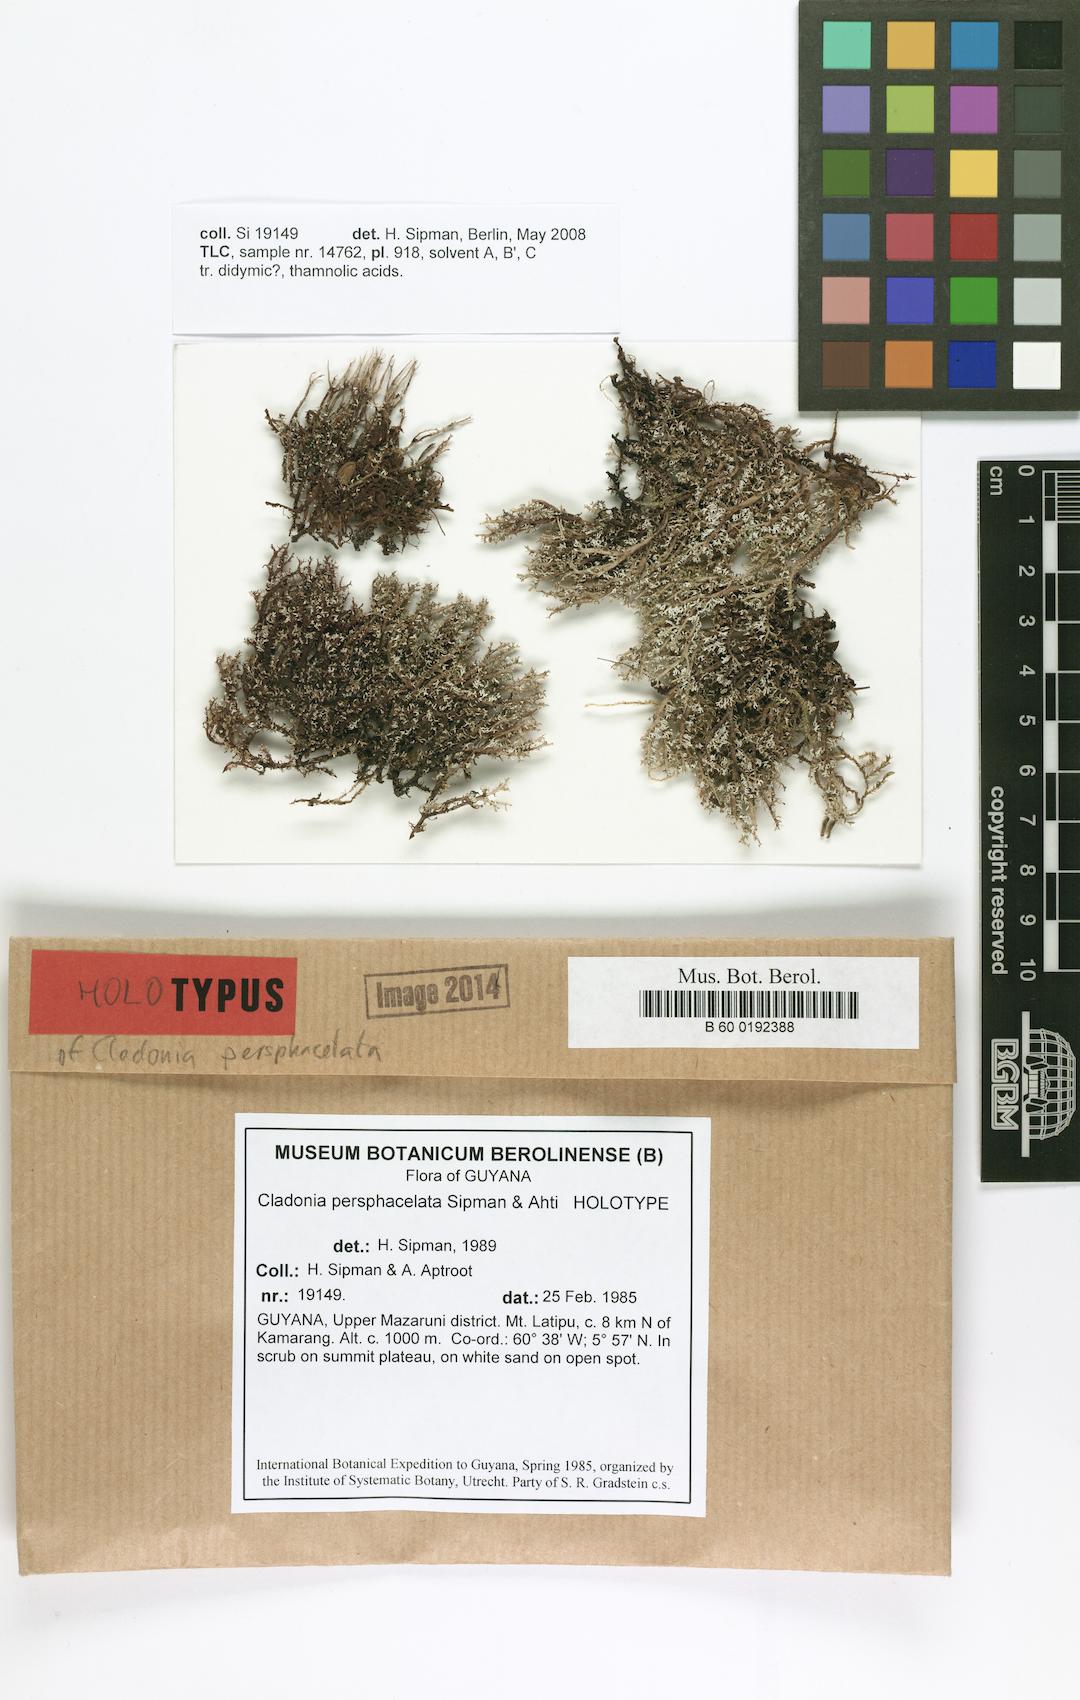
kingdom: Fungi
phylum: Ascomycota
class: Lecanoromycetes
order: Lecanorales
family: Cladoniaceae
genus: Cladonia
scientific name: Cladonia persphacelata
